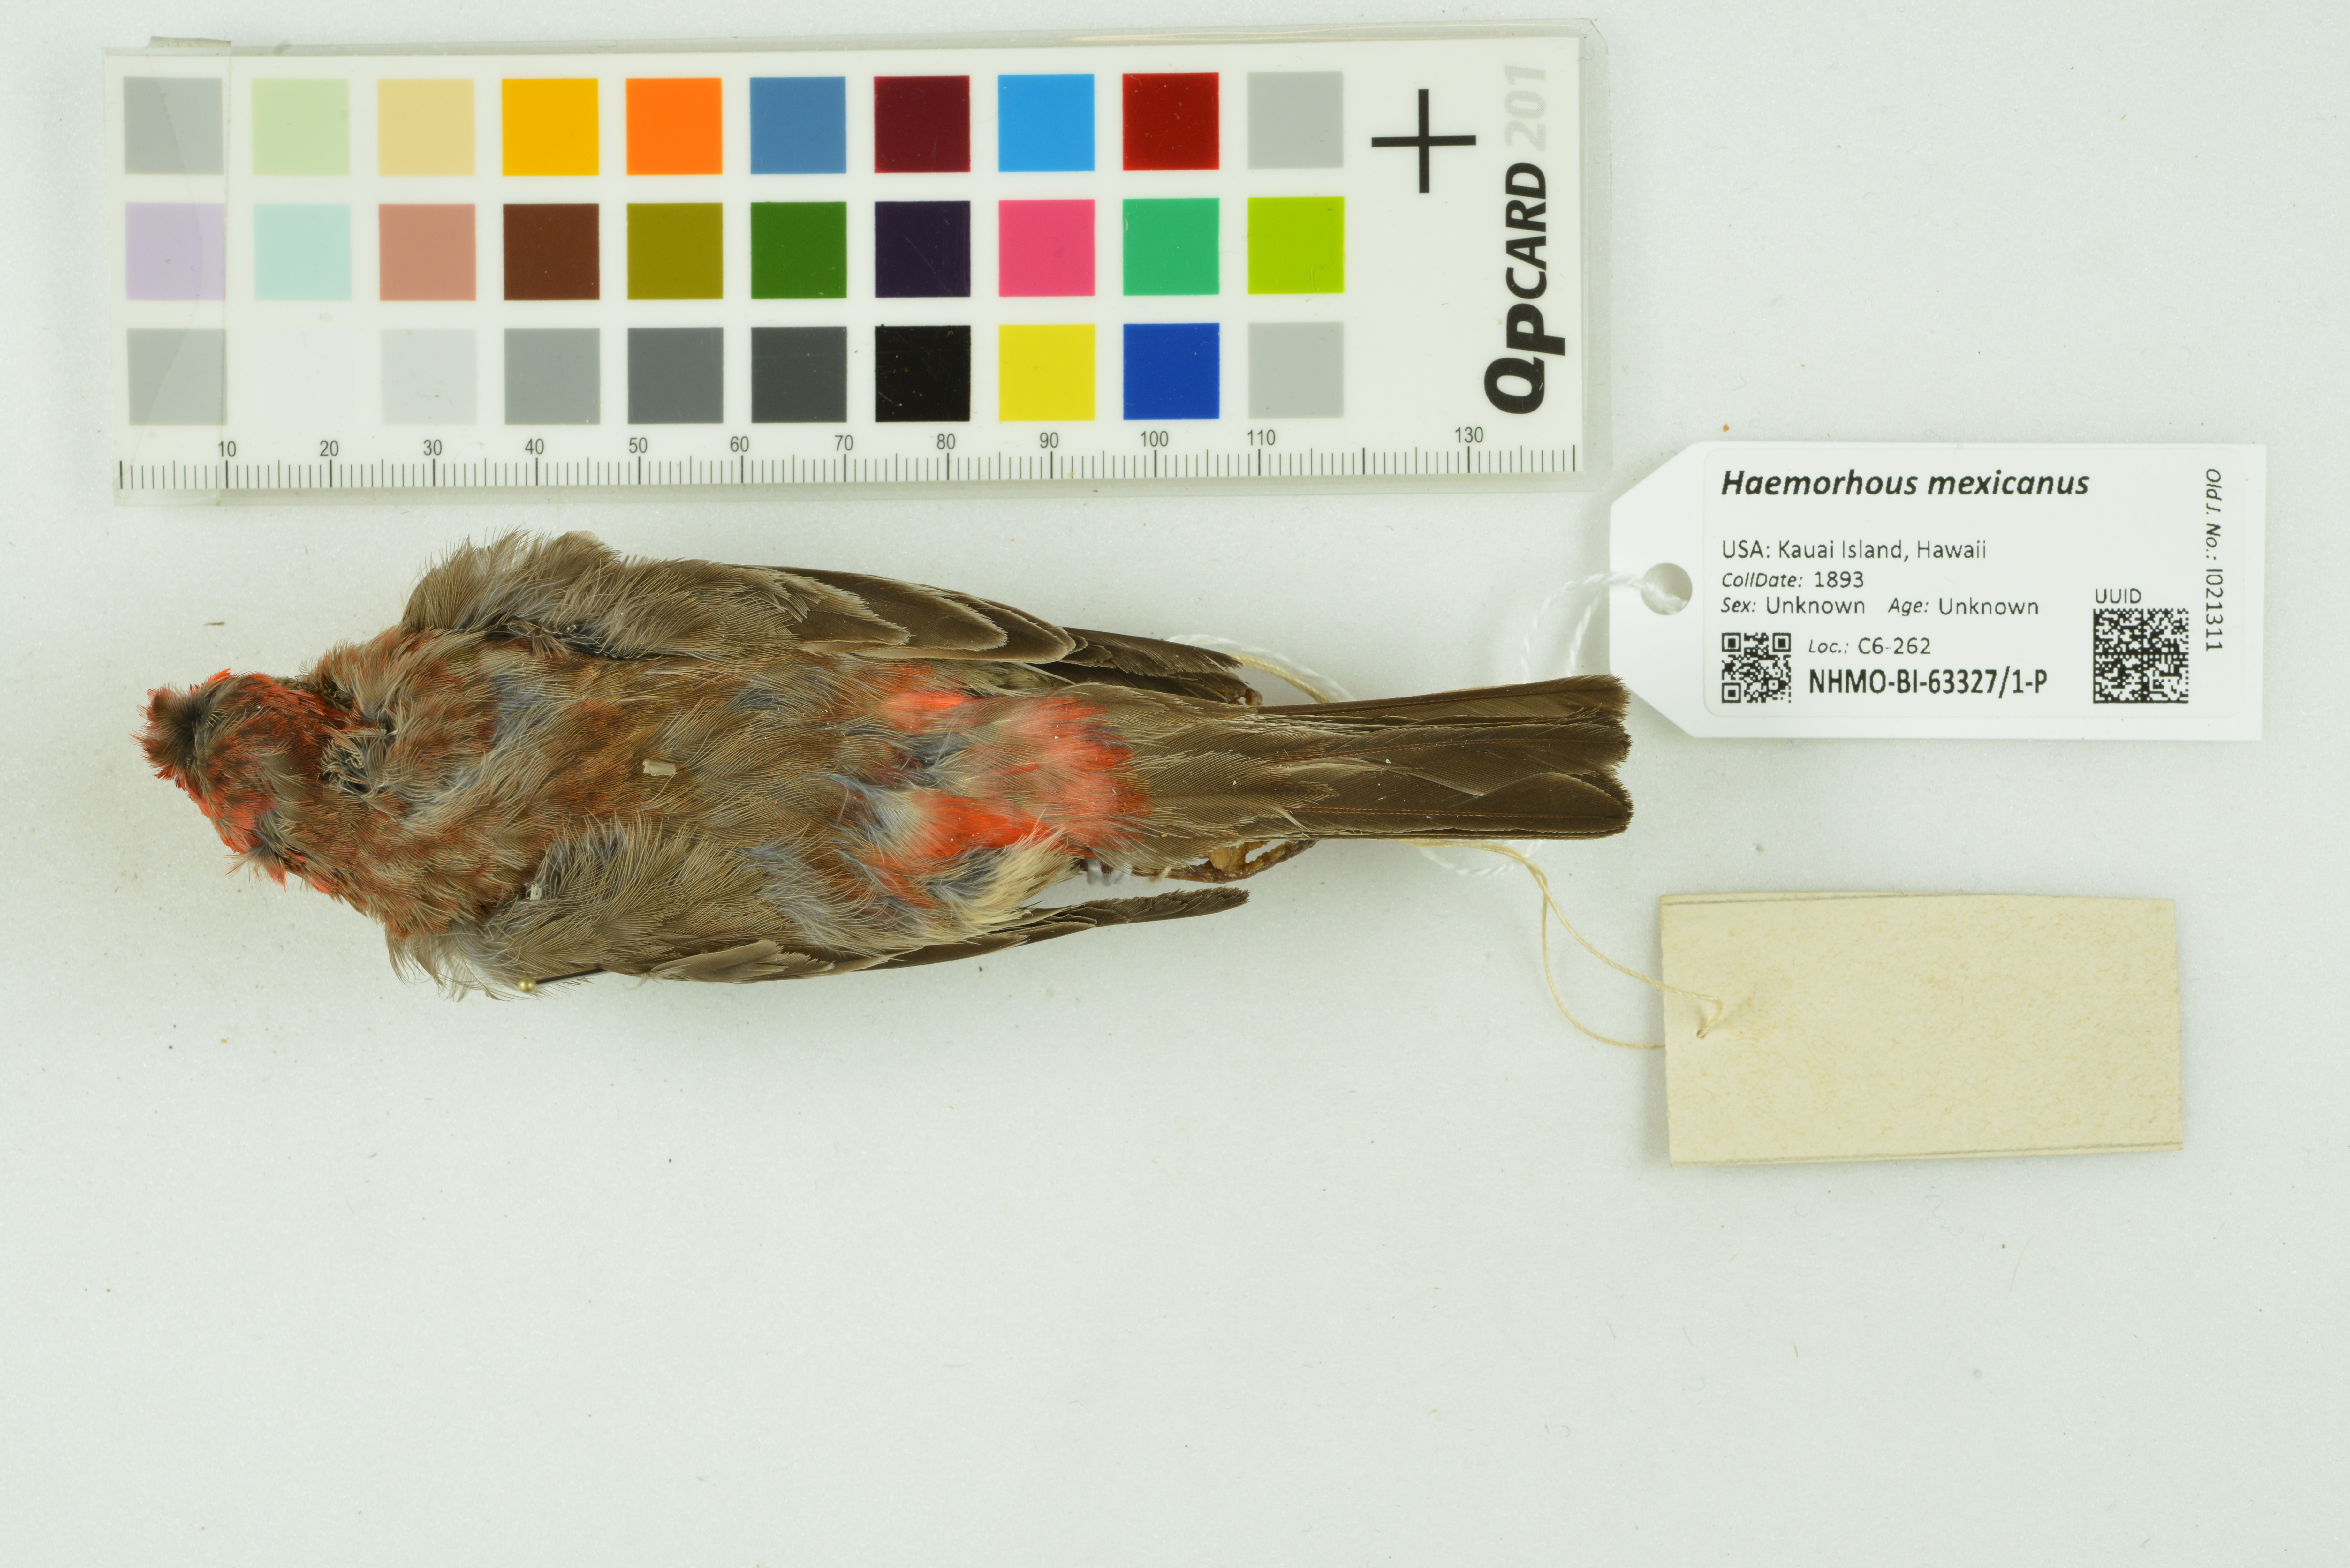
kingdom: Animalia
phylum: Chordata
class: Aves
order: Passeriformes
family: Fringillidae
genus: Haemorhous
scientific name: Haemorhous mexicanus
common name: House finch
